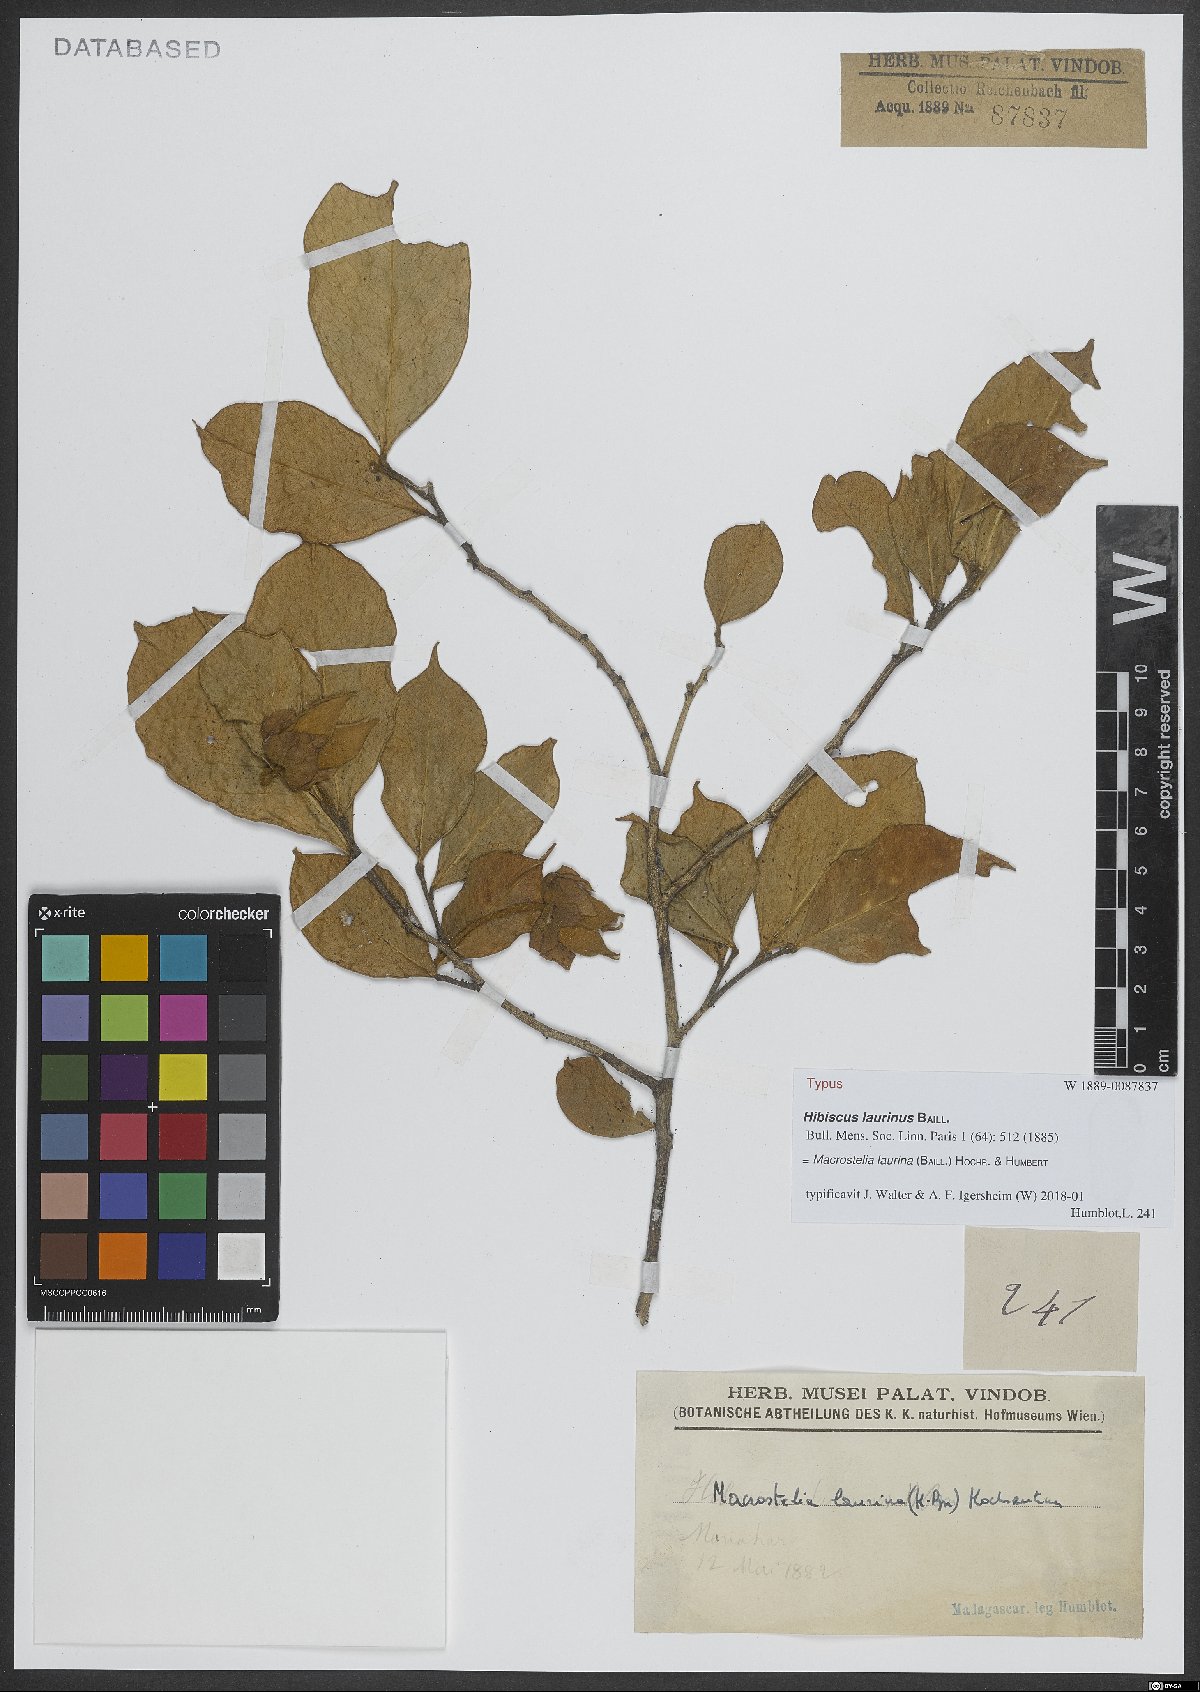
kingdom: Plantae
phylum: Tracheophyta
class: Magnoliopsida
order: Malvales
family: Malvaceae
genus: Humbertianthus
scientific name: Humbertianthus cardiostegius
